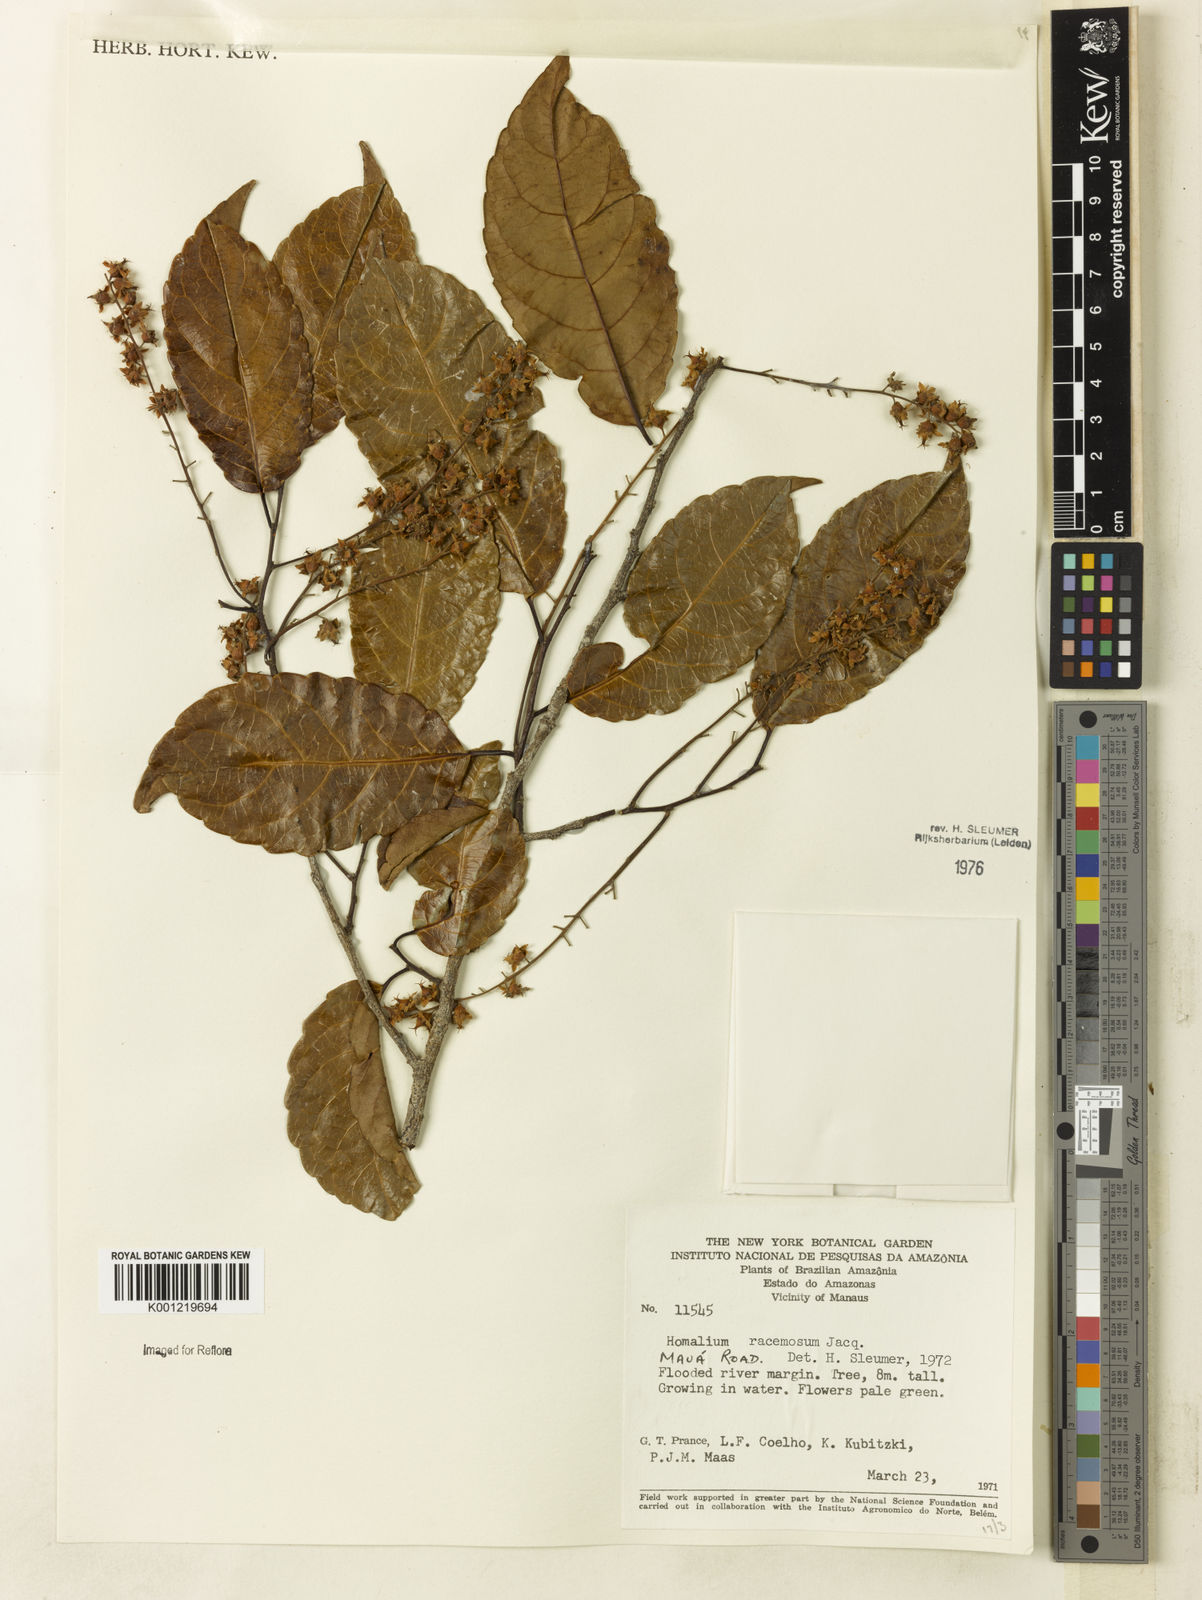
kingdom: Plantae
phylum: Tracheophyta
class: Magnoliopsida
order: Malpighiales
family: Salicaceae
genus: Homalium
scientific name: Homalium racemosum
